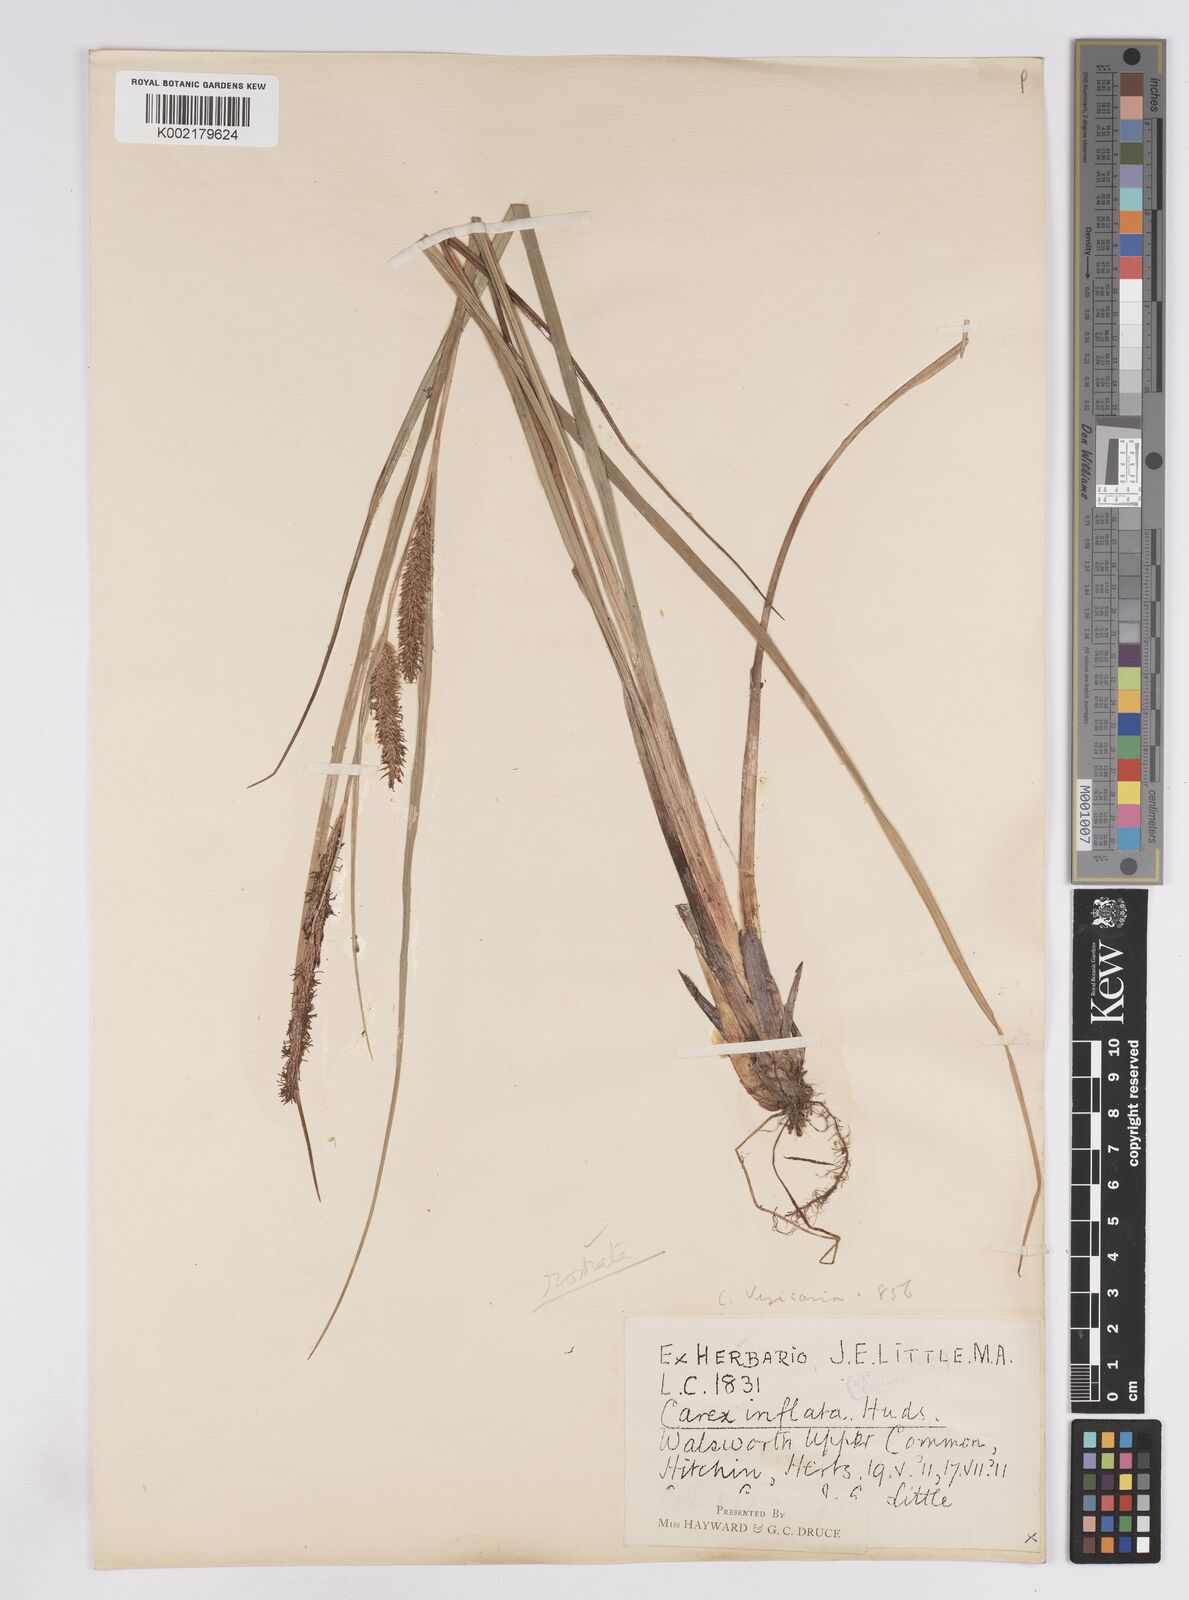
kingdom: Plantae
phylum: Tracheophyta
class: Liliopsida
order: Poales
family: Cyperaceae
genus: Carex
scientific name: Carex rostrata
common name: Bottle sedge
